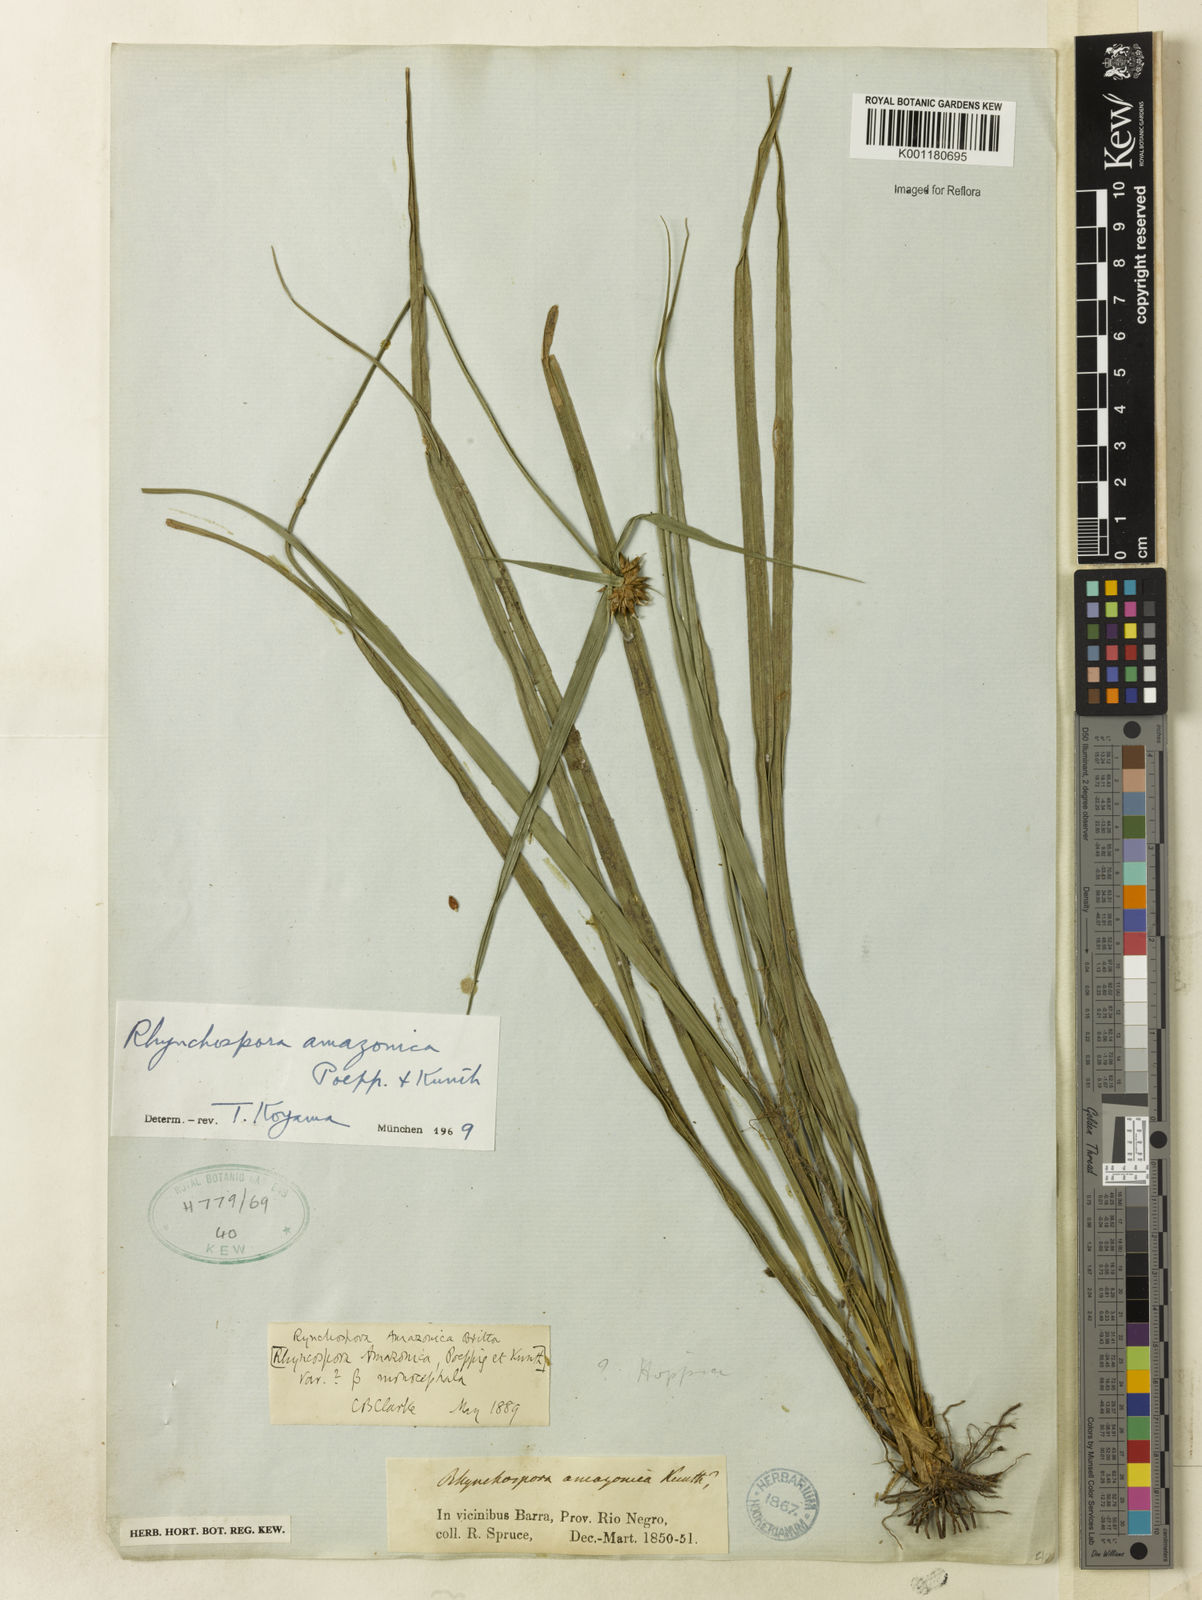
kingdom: Plantae
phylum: Tracheophyta
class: Liliopsida
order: Poales
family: Cyperaceae
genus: Rhynchospora
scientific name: Rhynchospora amazonica
